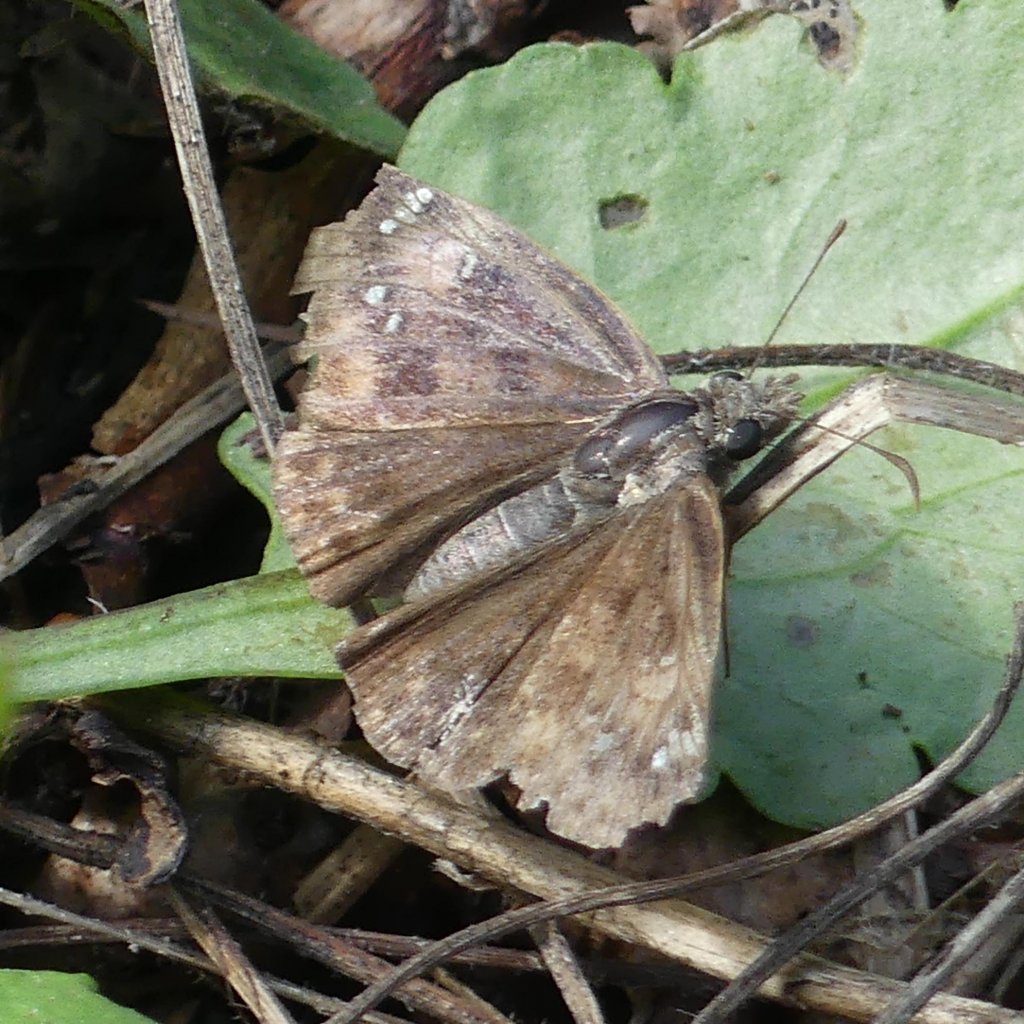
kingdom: Animalia
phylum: Arthropoda
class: Insecta
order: Lepidoptera
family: Hesperiidae
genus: Gesta
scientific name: Gesta
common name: Wild Indigo Duskywing
